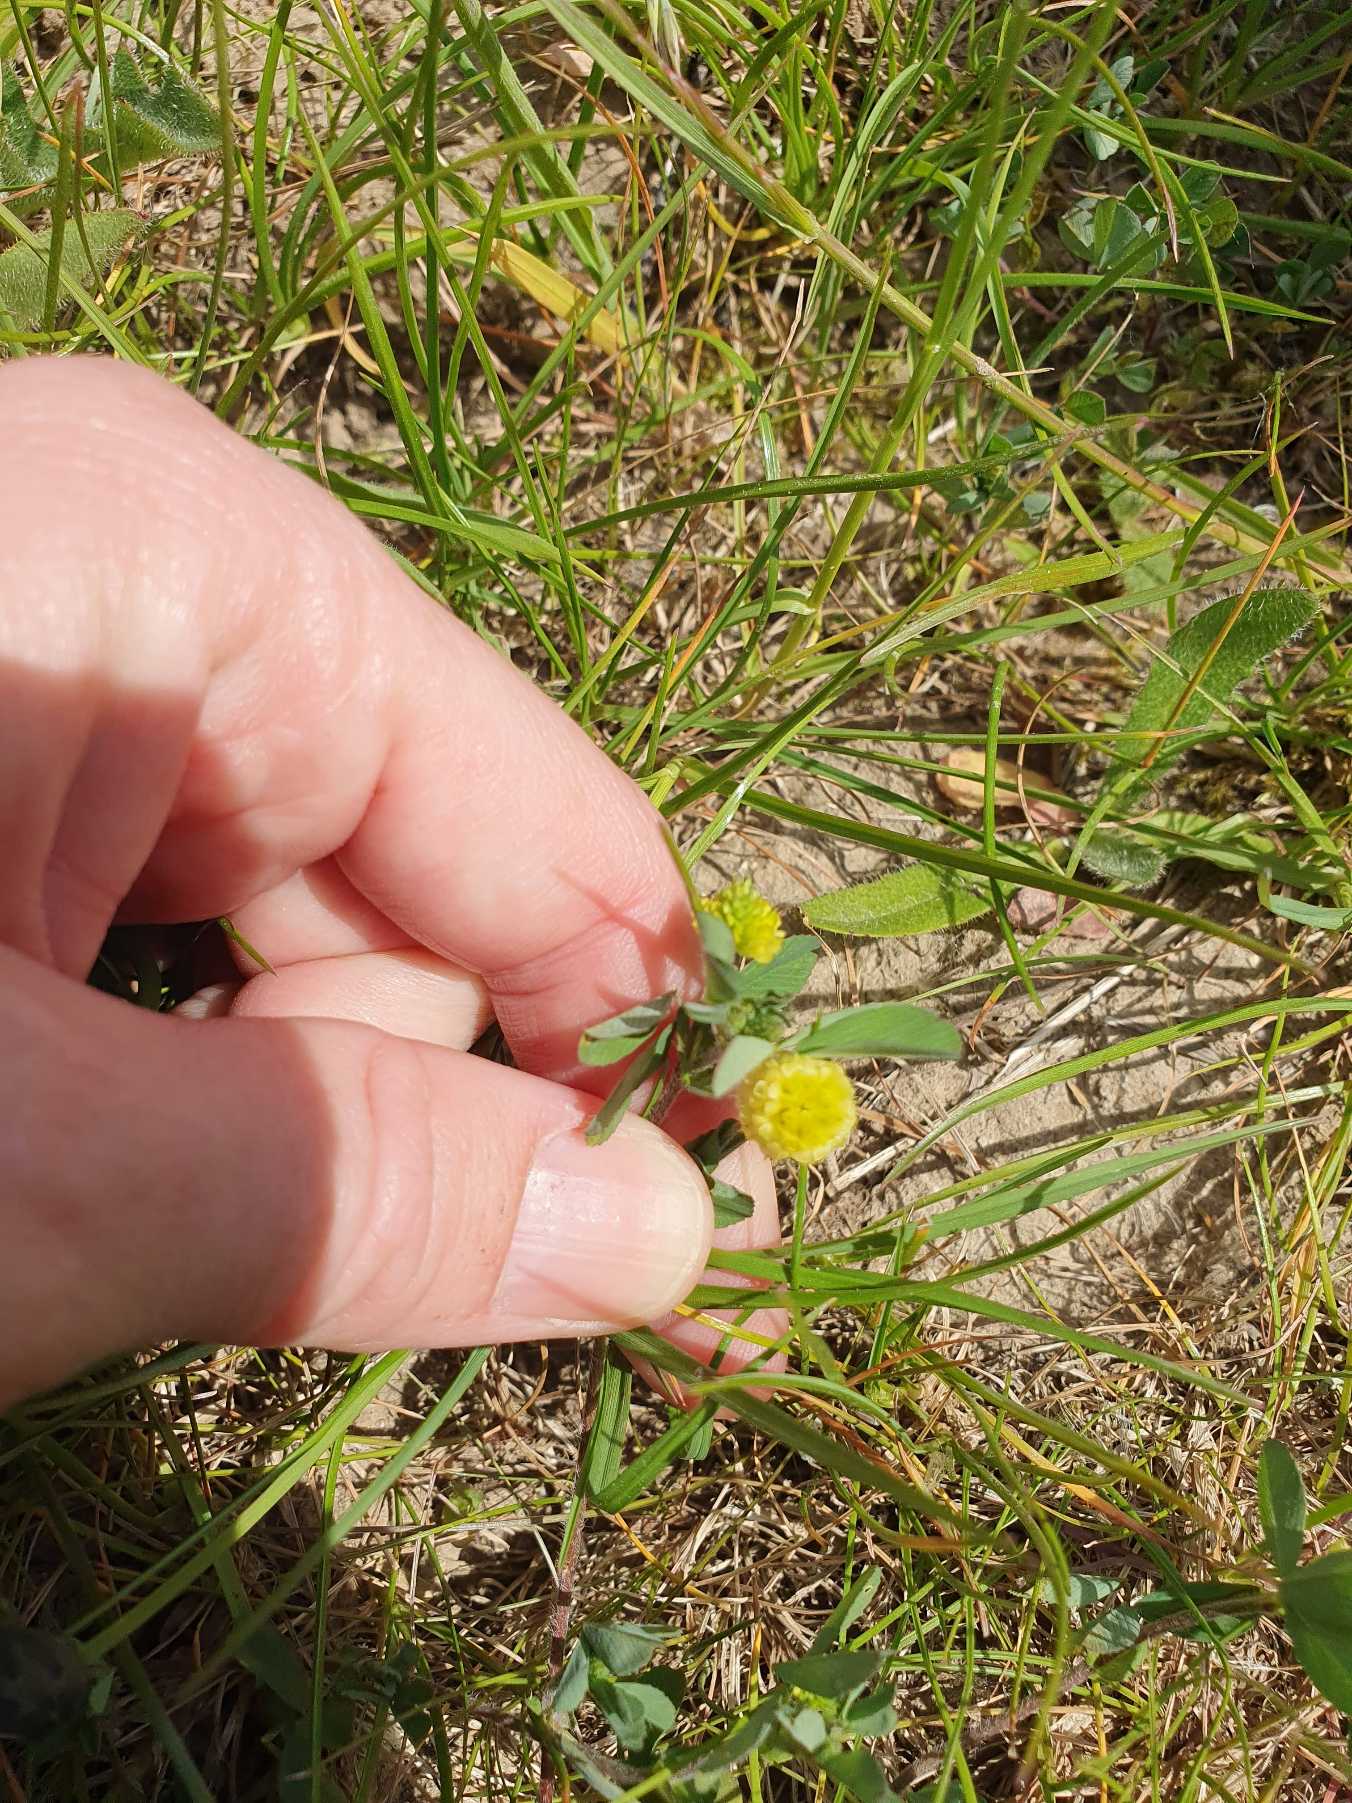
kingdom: Plantae
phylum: Tracheophyta
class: Magnoliopsida
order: Fabales
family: Fabaceae
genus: Trifolium
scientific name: Trifolium campestre
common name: Gul kløver
